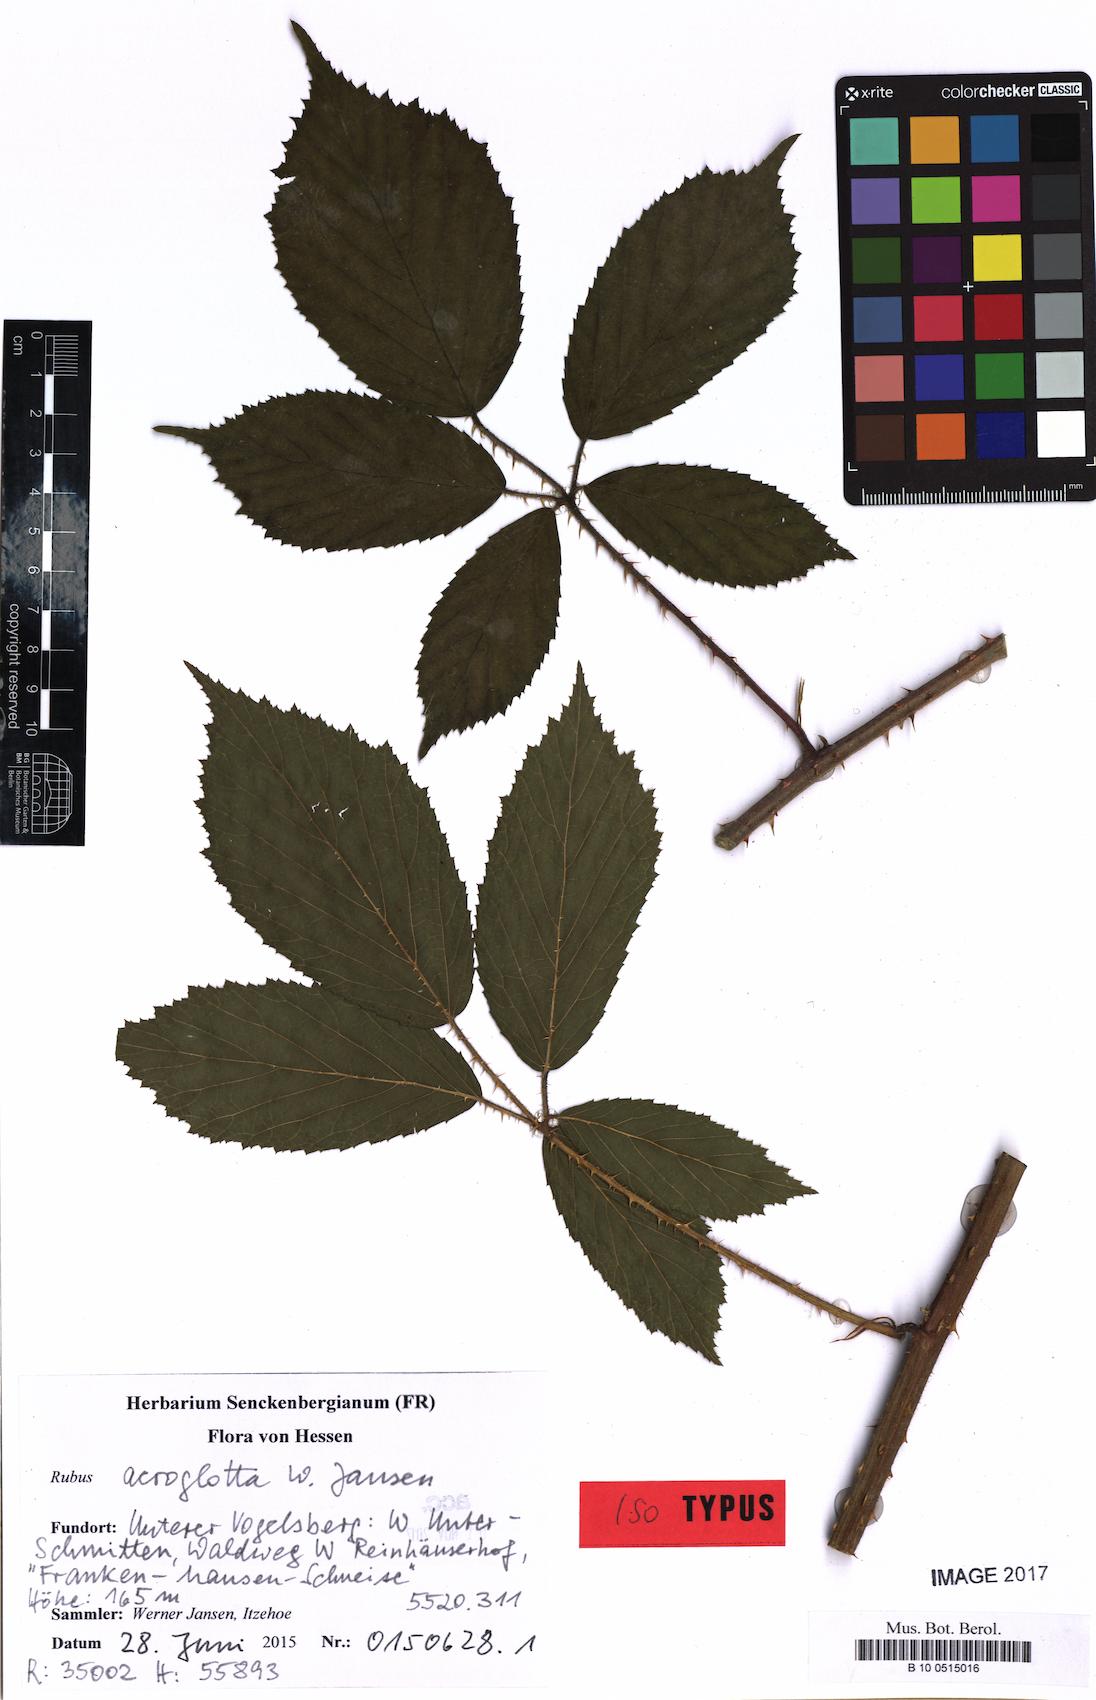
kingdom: Plantae
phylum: Tracheophyta
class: Magnoliopsida
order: Rosales
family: Rosaceae
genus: Rubus
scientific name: Rubus acroglotta
